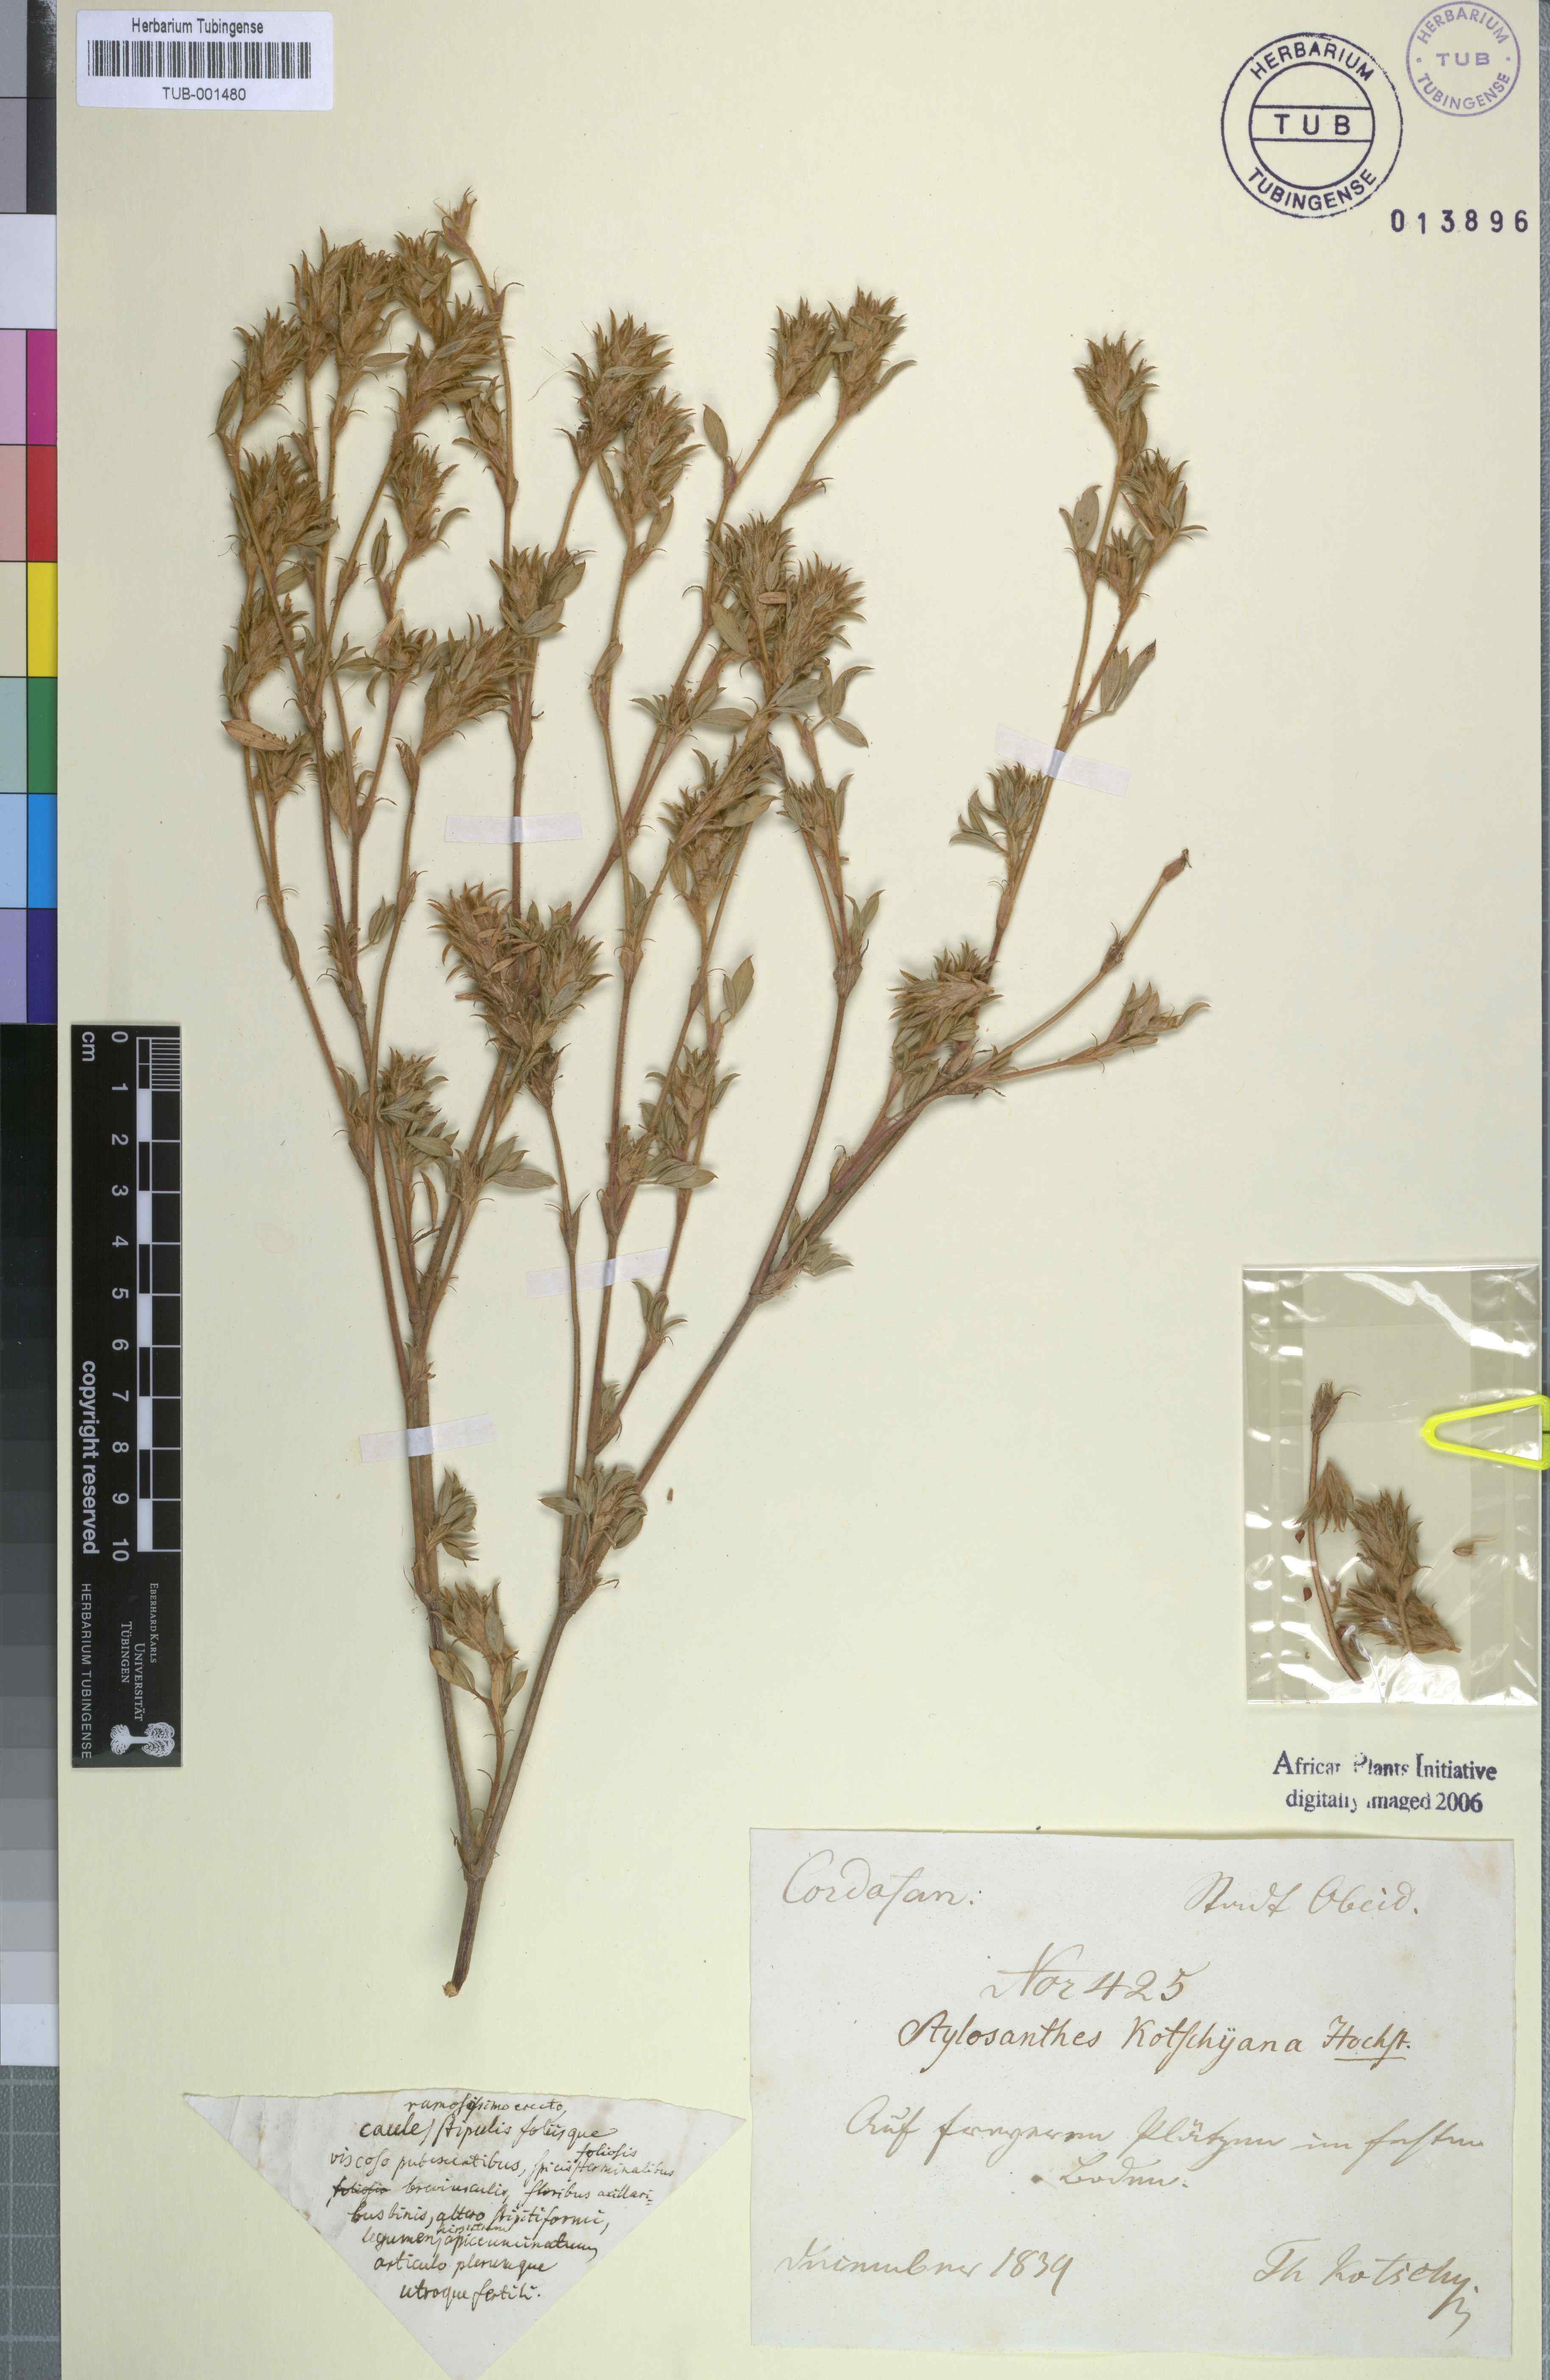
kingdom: Plantae
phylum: Tracheophyta
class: Magnoliopsida
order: Fabales
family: Fabaceae
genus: Stylosanthes
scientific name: Stylosanthes
